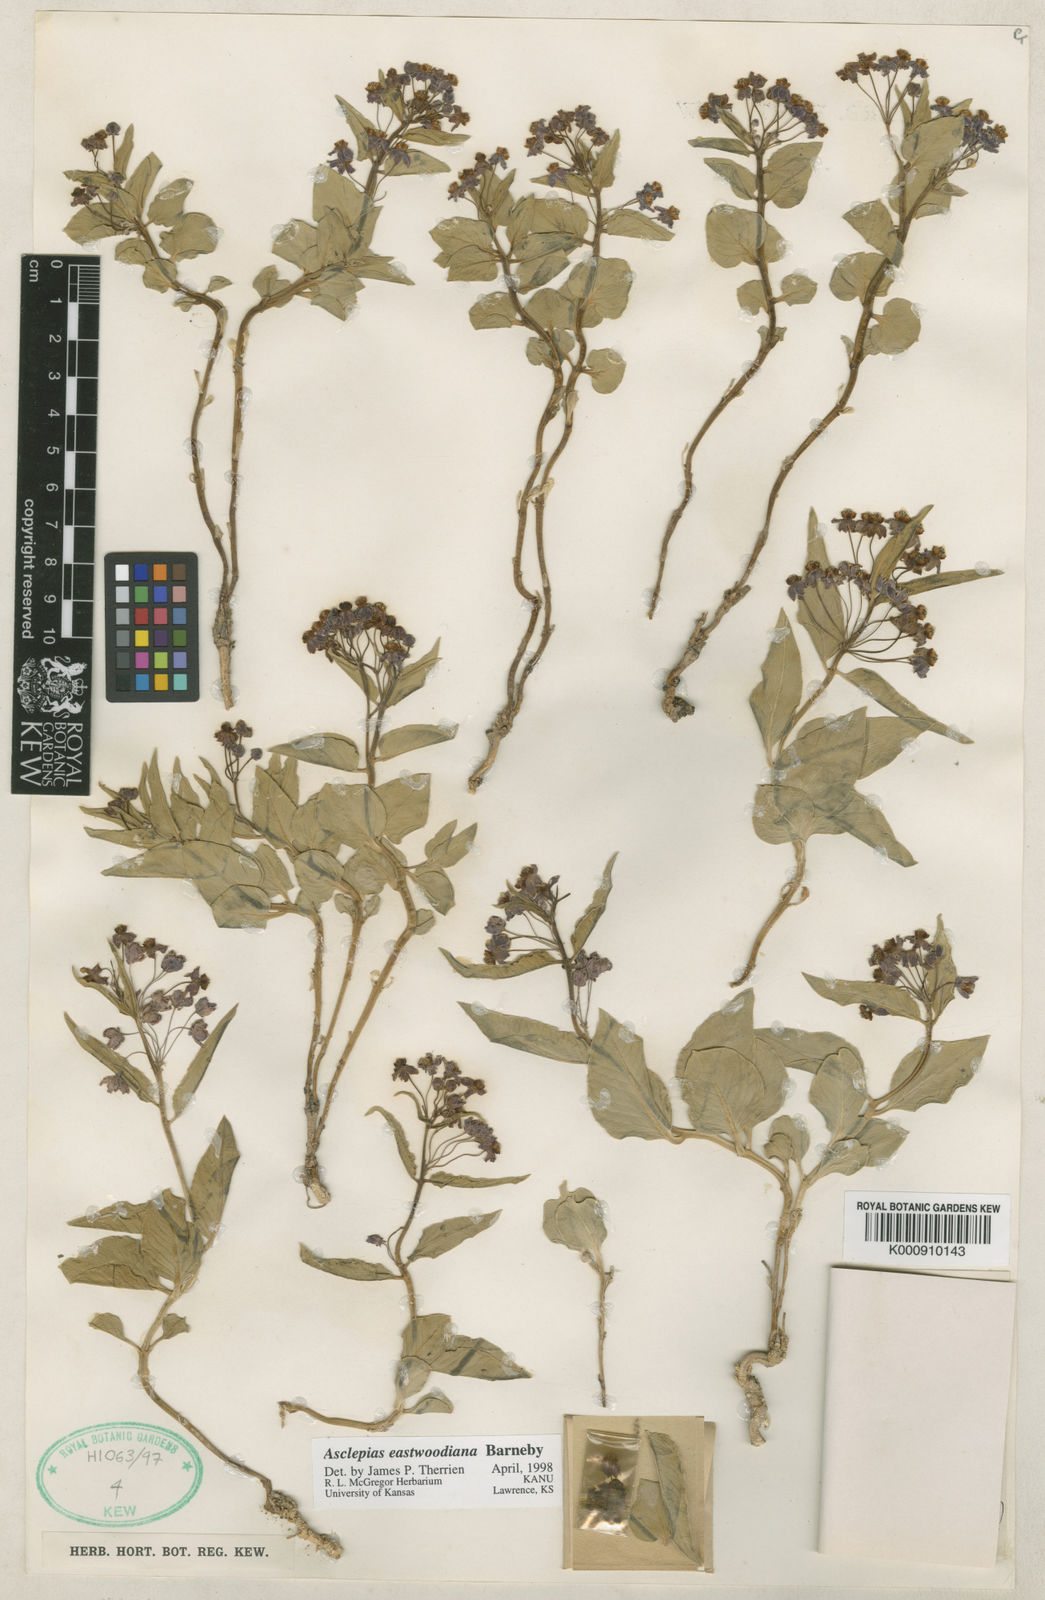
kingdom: Plantae
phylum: Tracheophyta
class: Magnoliopsida
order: Gentianales
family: Apocynaceae
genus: Asclepias
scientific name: Asclepias ruthiae
